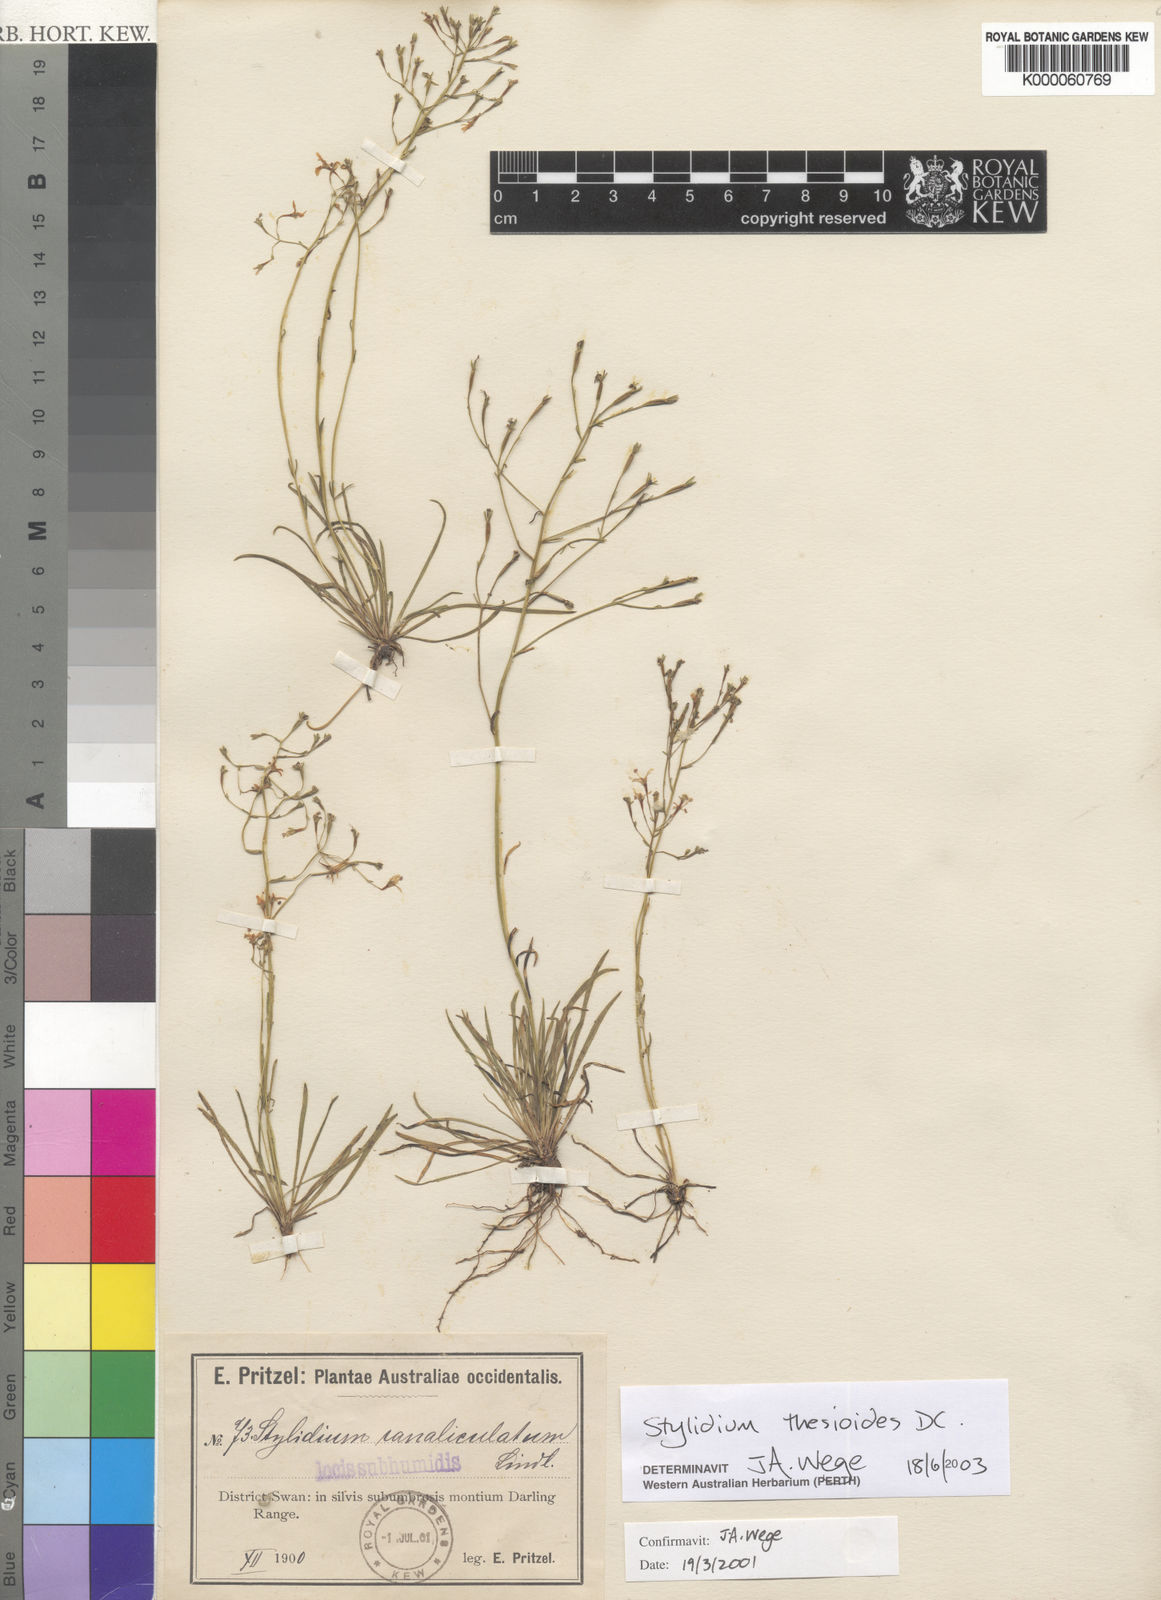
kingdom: Plantae
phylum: Tracheophyta
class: Magnoliopsida
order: Asterales
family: Stylidiaceae
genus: Stylidium
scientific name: Stylidium thesioides
